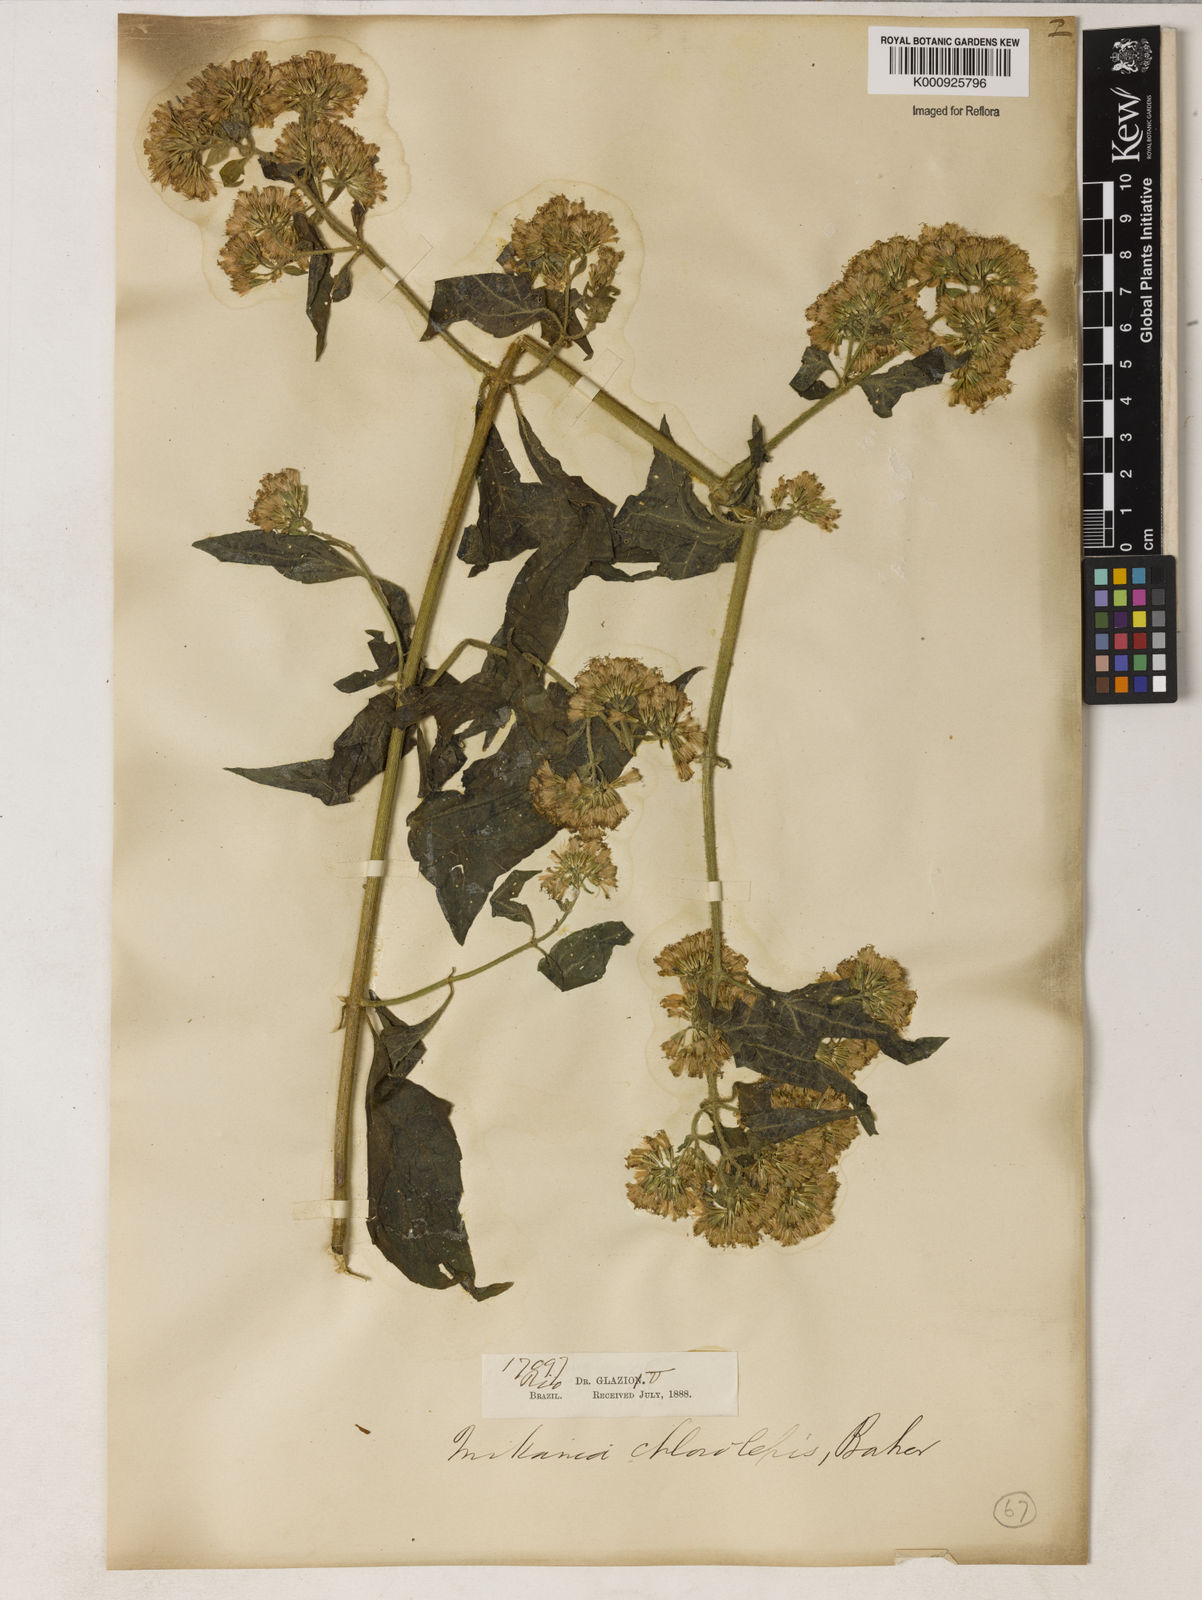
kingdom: Plantae
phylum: Tracheophyta
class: Magnoliopsida
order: Asterales
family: Asteraceae
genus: Mikania
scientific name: Mikania chlorolepis
